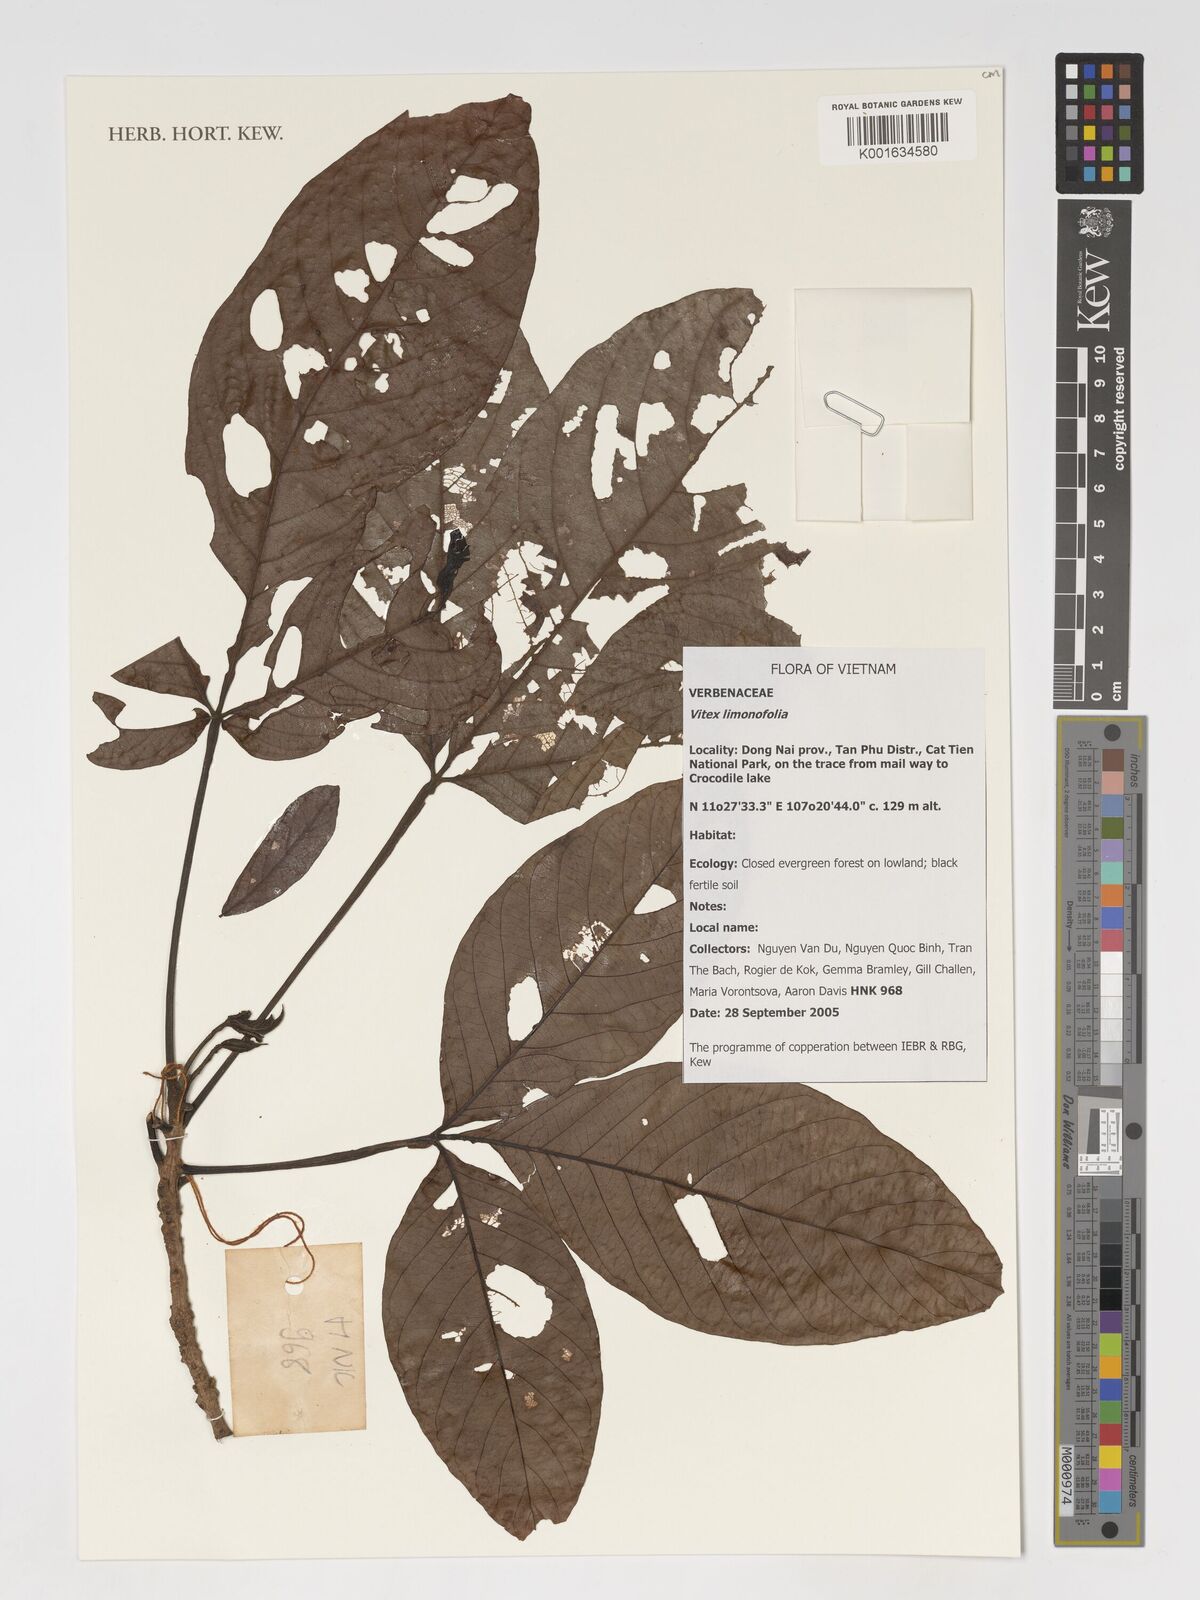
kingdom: Plantae
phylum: Tracheophyta
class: Magnoliopsida
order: Lamiales
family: Lamiaceae
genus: Vitex
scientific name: Vitex limonifolia
